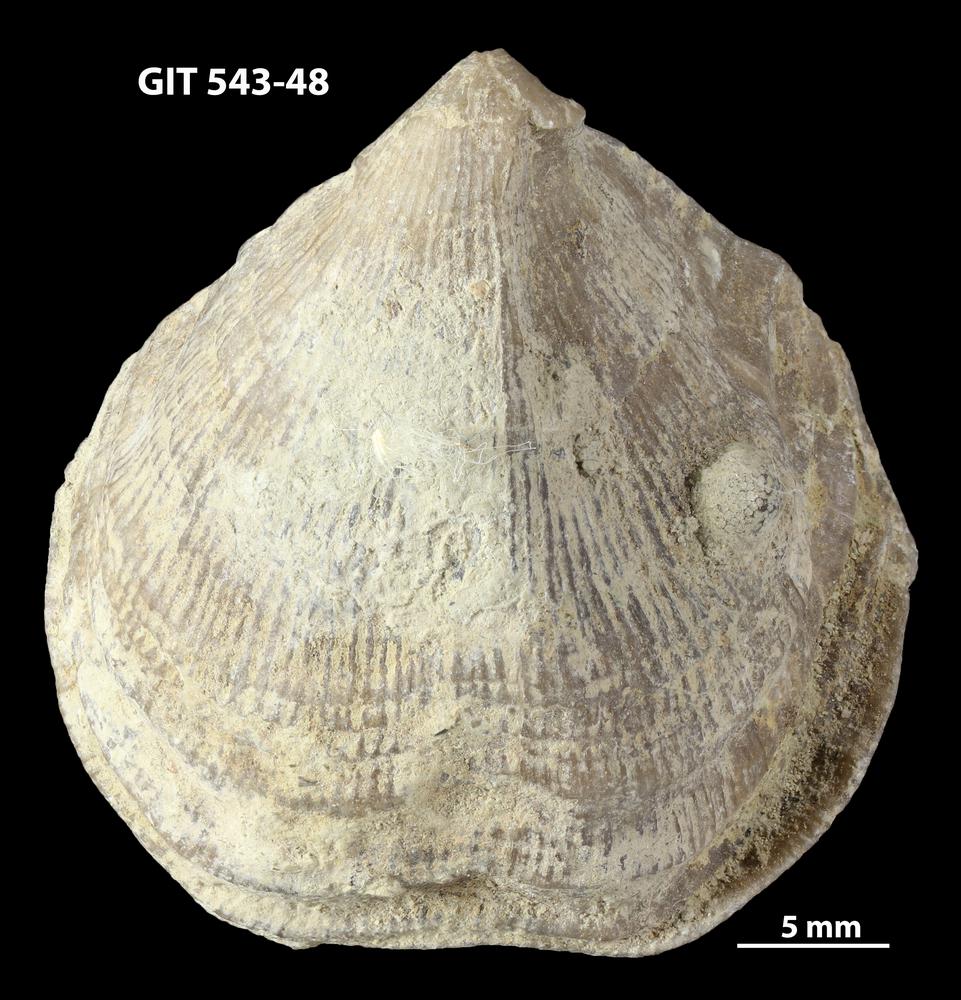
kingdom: Animalia
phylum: Brachiopoda
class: Rhynchonellata
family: Clitambonitidae
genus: Vellamo
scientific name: Vellamo
